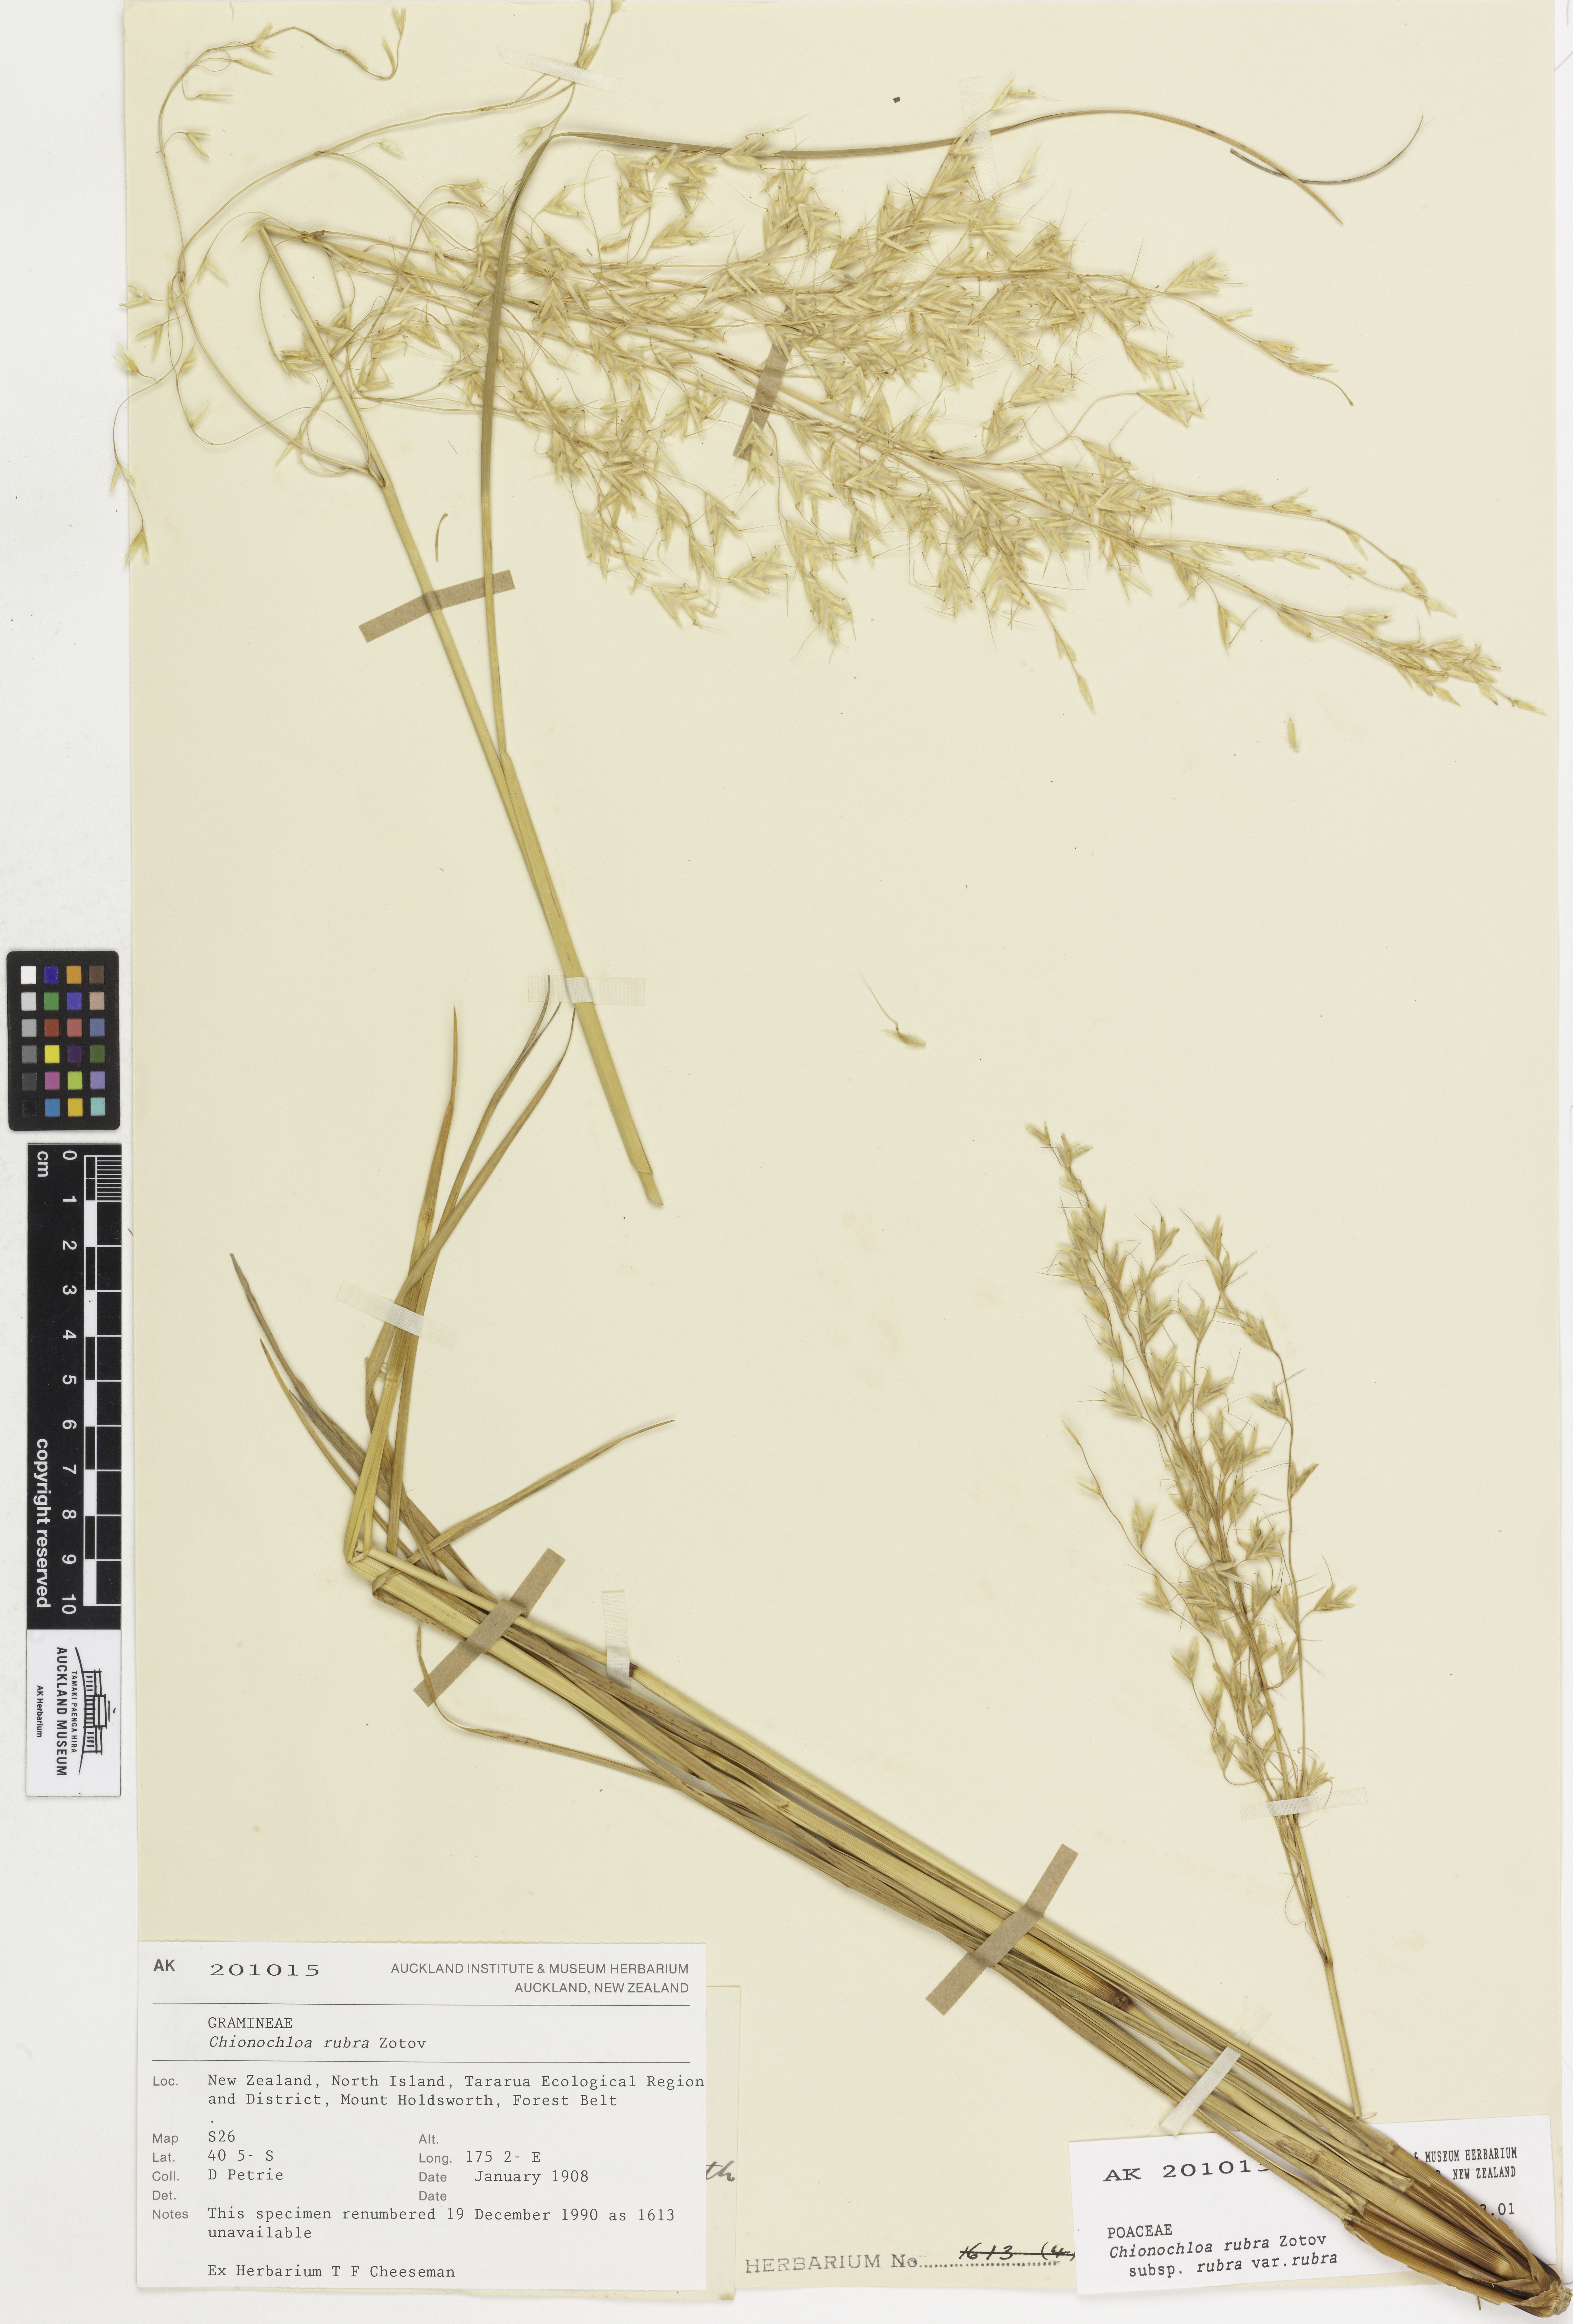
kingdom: Plantae
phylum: Tracheophyta
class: Liliopsida
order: Poales
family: Poaceae
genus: Chionochloa
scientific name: Chionochloa rubra
